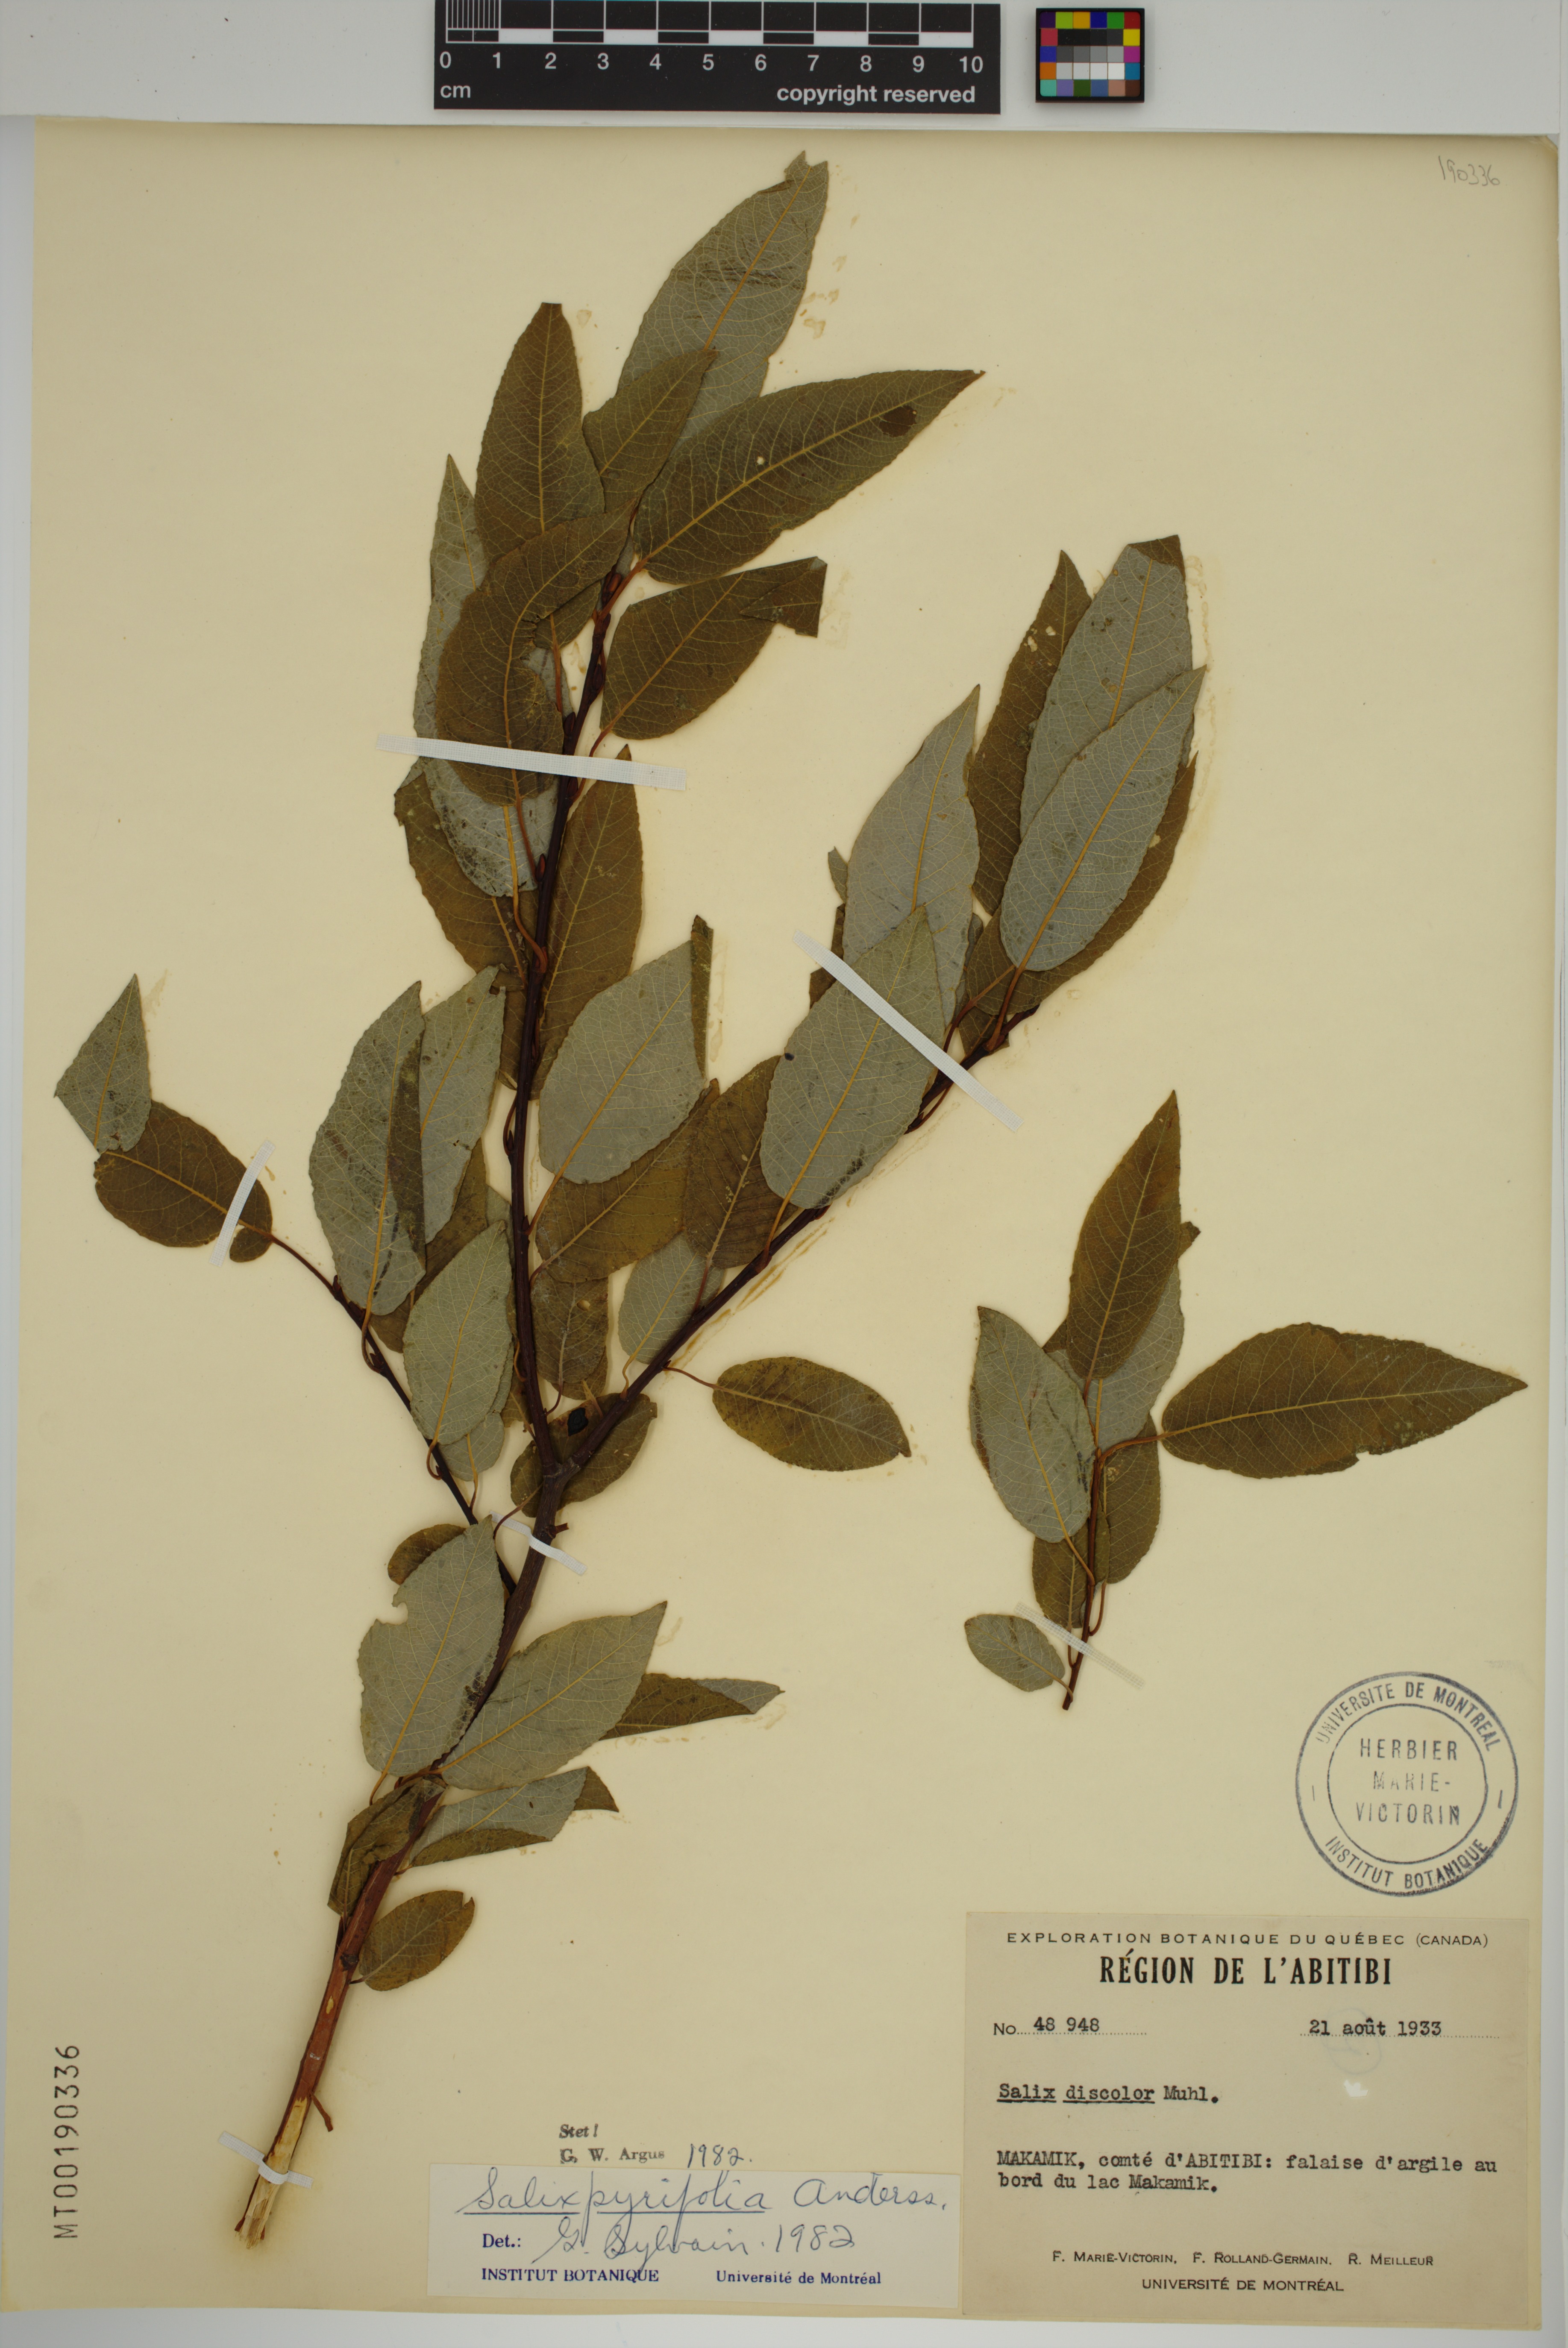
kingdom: Plantae
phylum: Tracheophyta
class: Magnoliopsida
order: Malpighiales
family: Salicaceae
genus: Salix
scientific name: Salix pyrifolia
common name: Balsam willow
